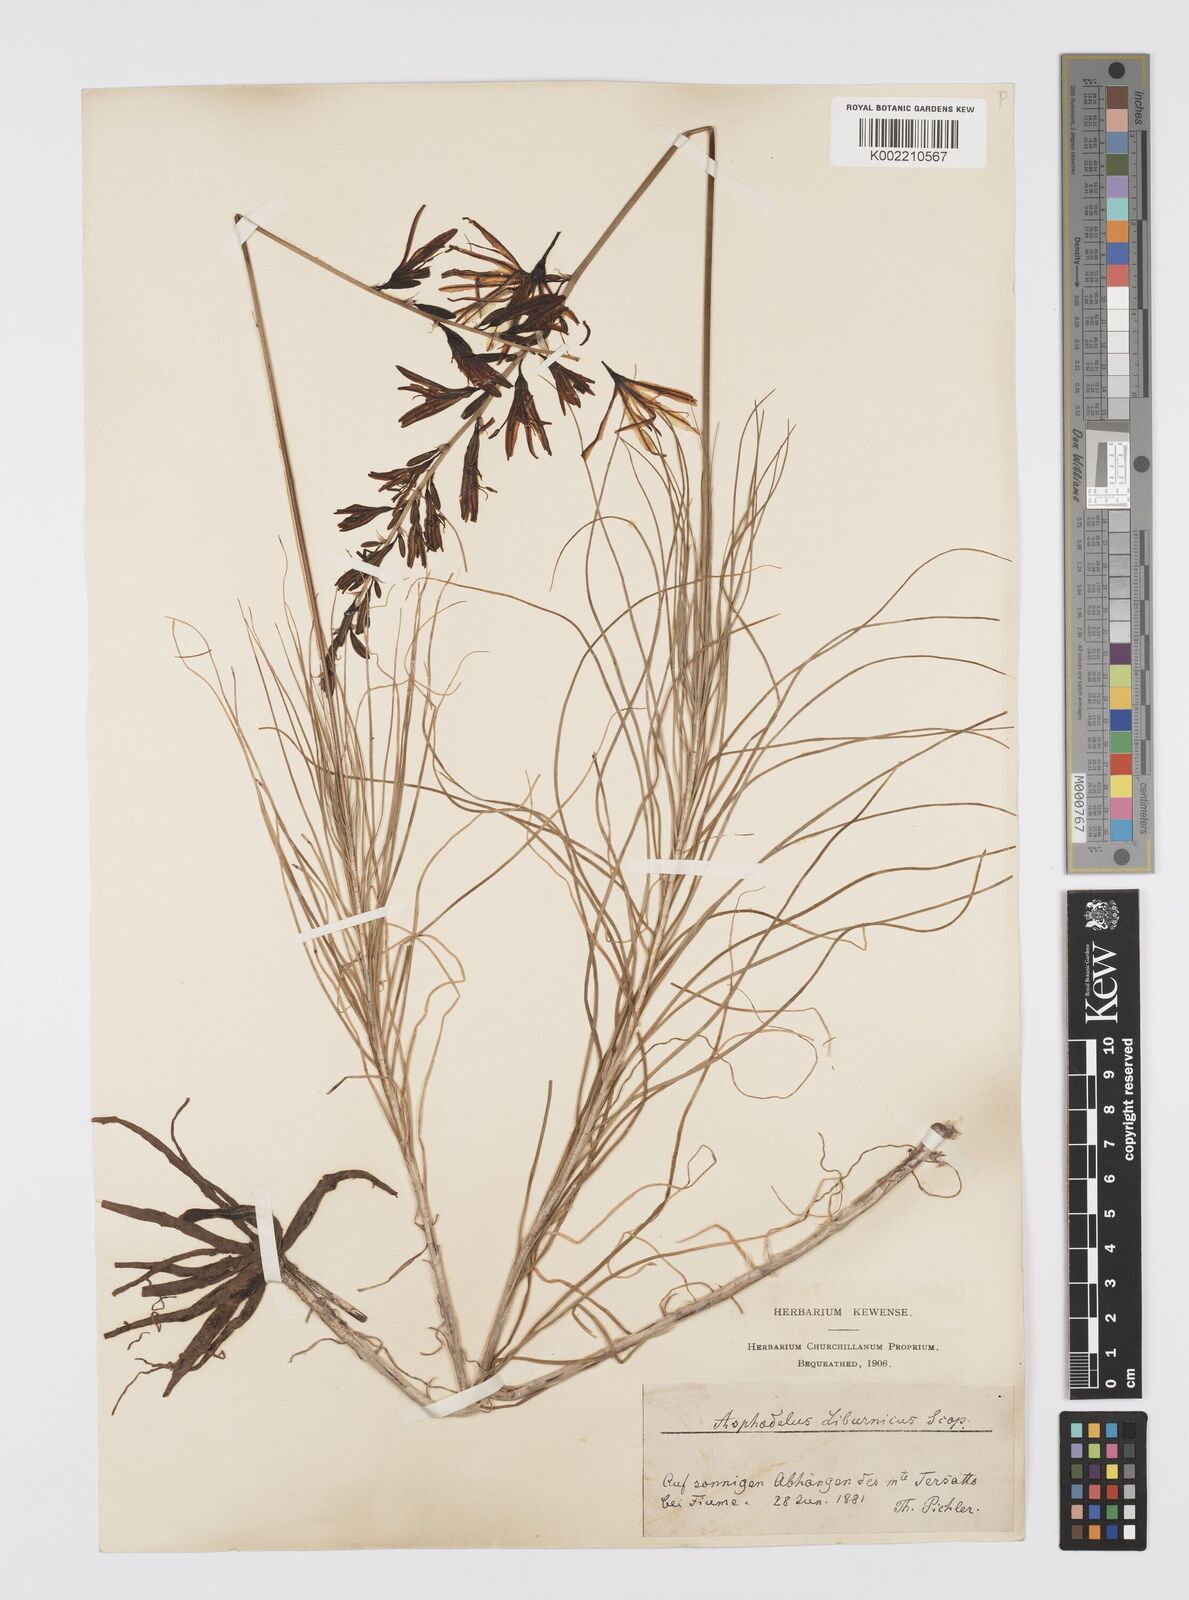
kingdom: Plantae
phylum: Tracheophyta
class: Liliopsida
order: Asparagales
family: Asphodelaceae
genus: Asphodeline
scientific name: Asphodeline liburnica
